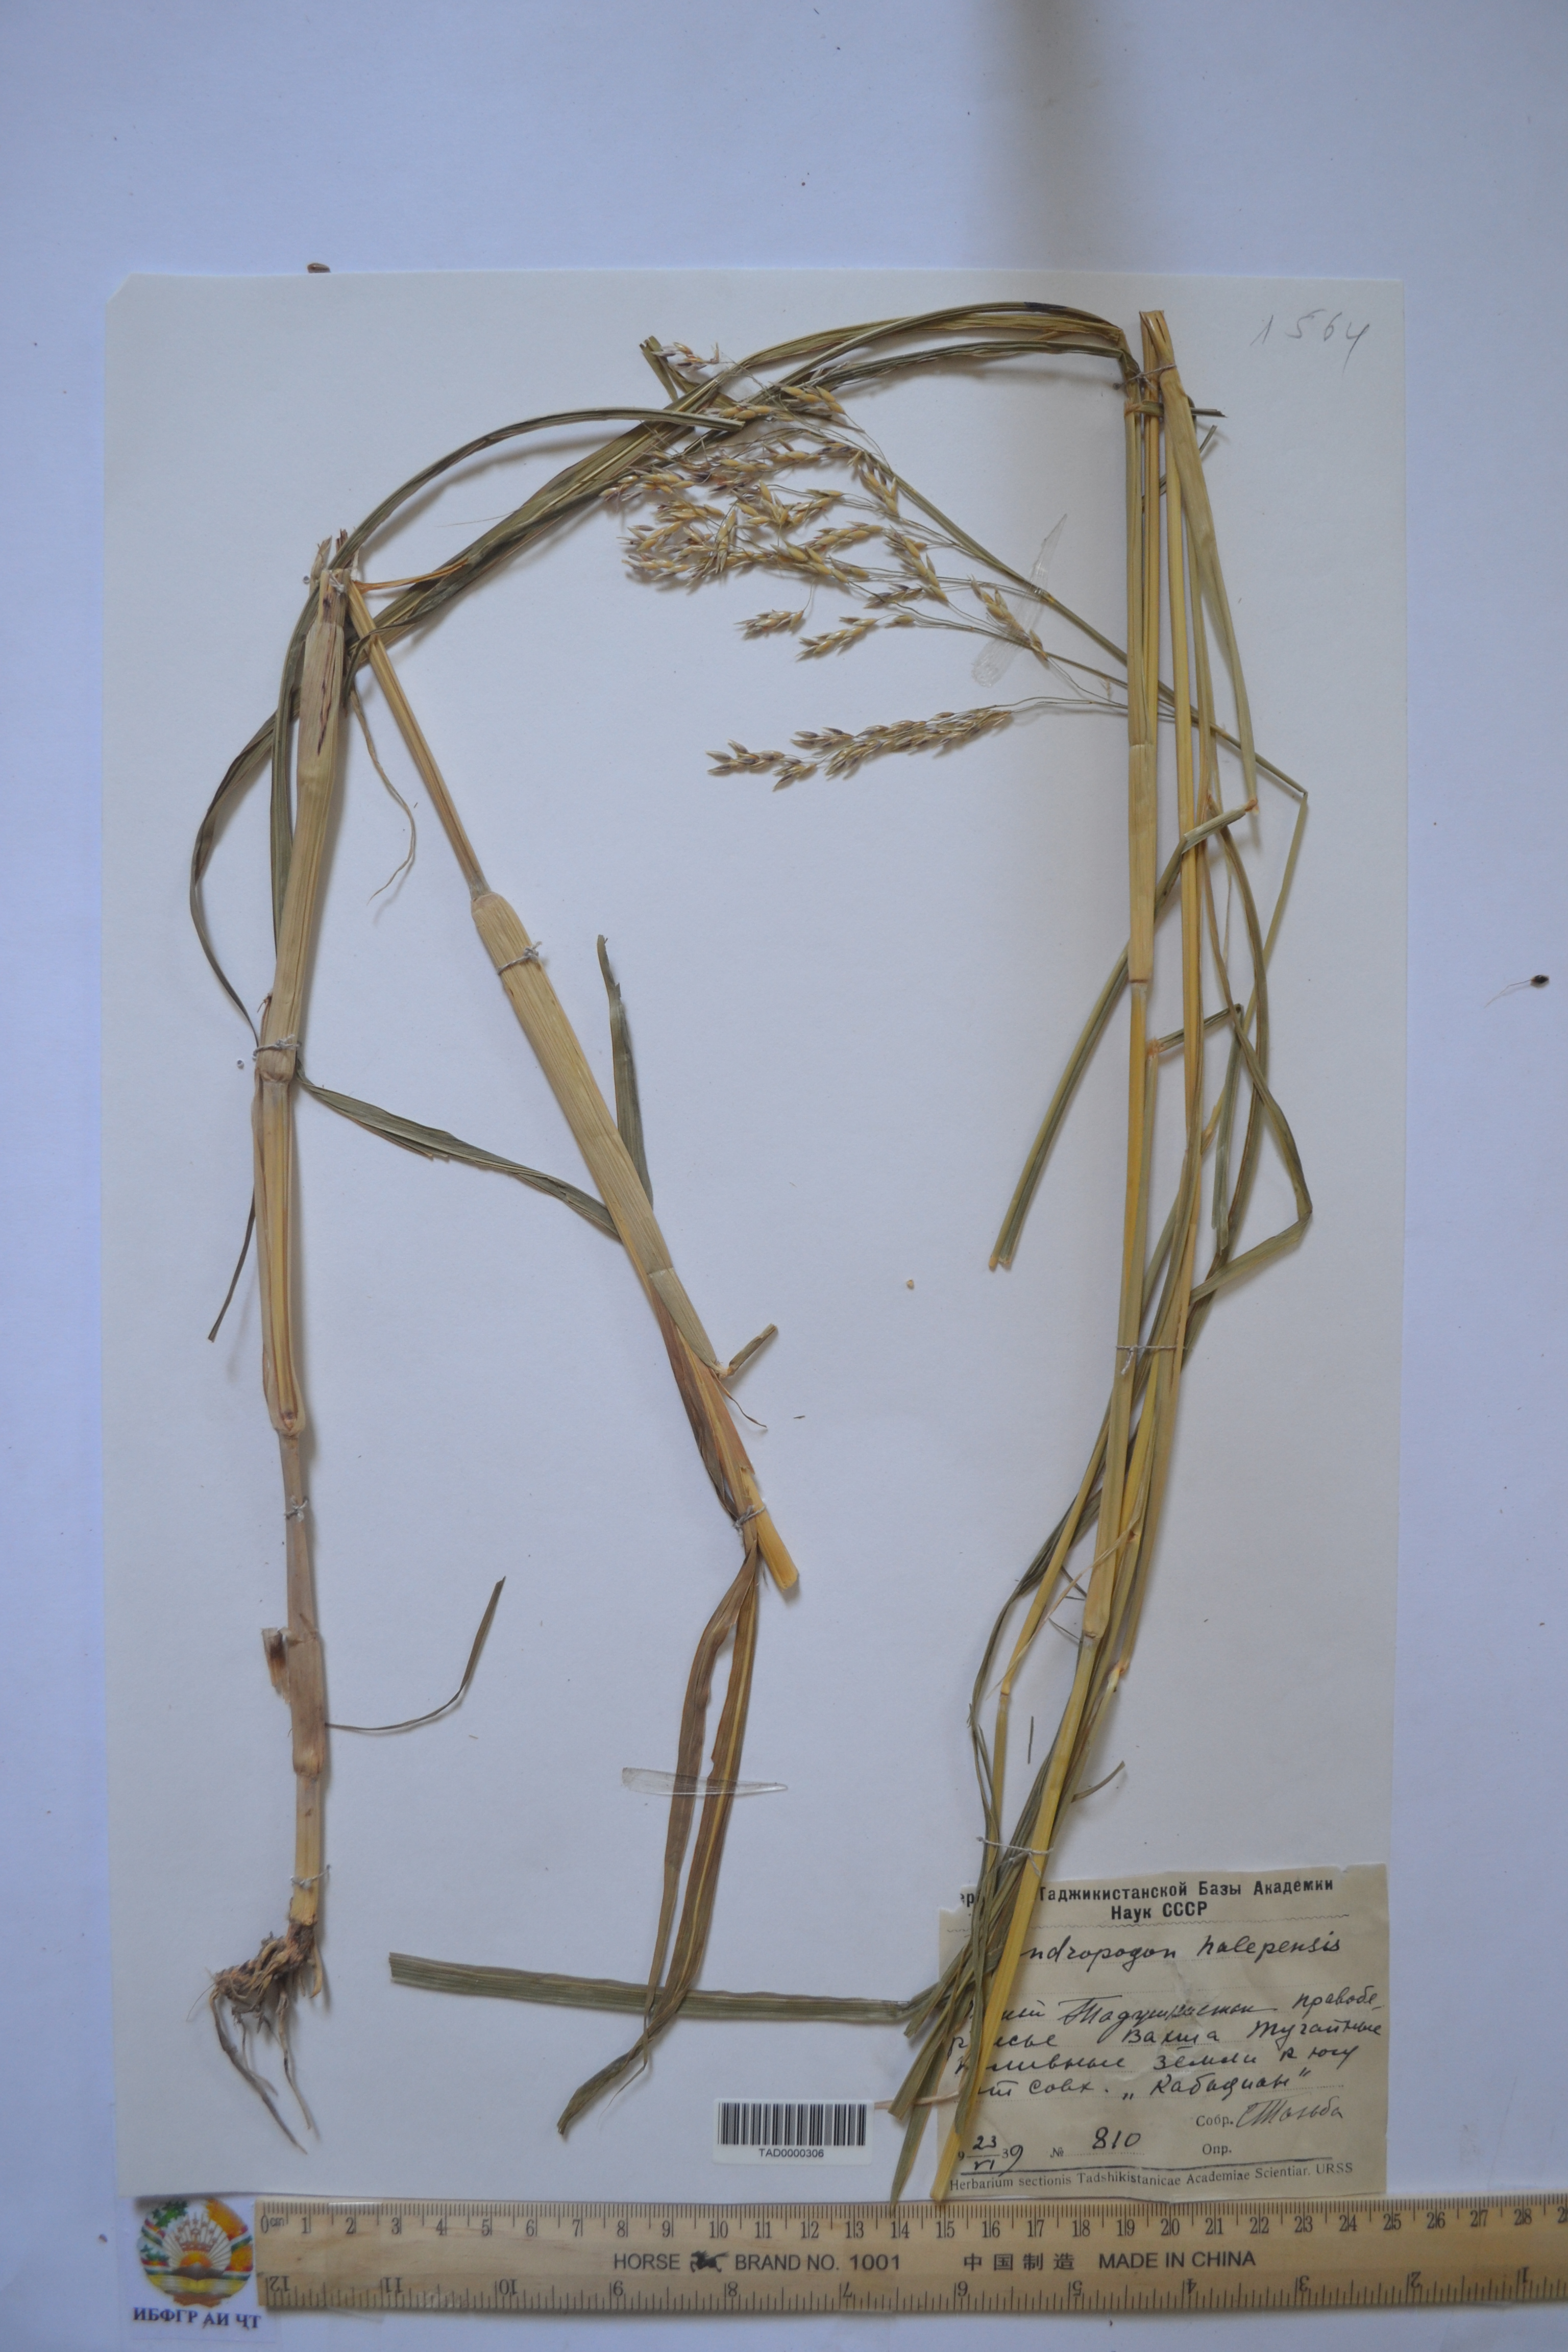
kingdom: Plantae
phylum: Tracheophyta
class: Liliopsida
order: Poales
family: Poaceae
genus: Andropogon
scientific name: Andropogon halepensis
